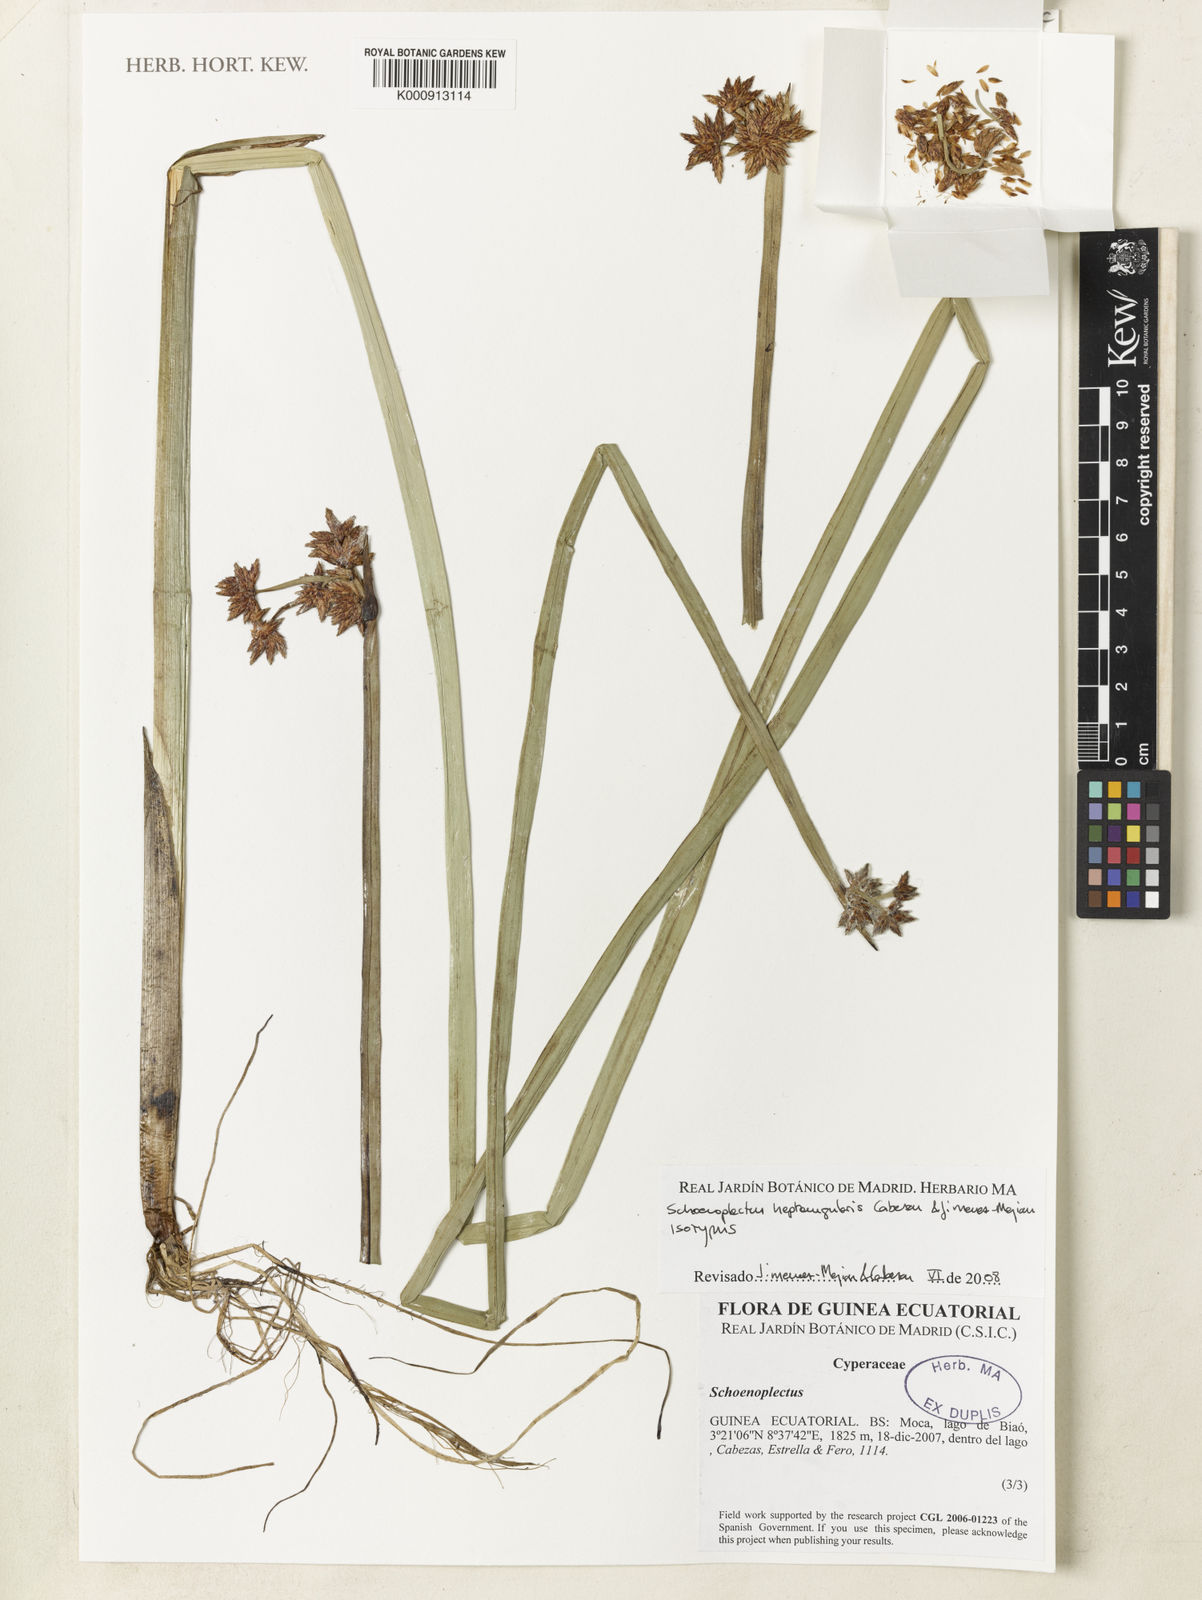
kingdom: Plantae
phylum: Tracheophyta
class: Liliopsida
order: Poales
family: Cyperaceae
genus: Schoenoplectus
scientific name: Schoenoplectus
